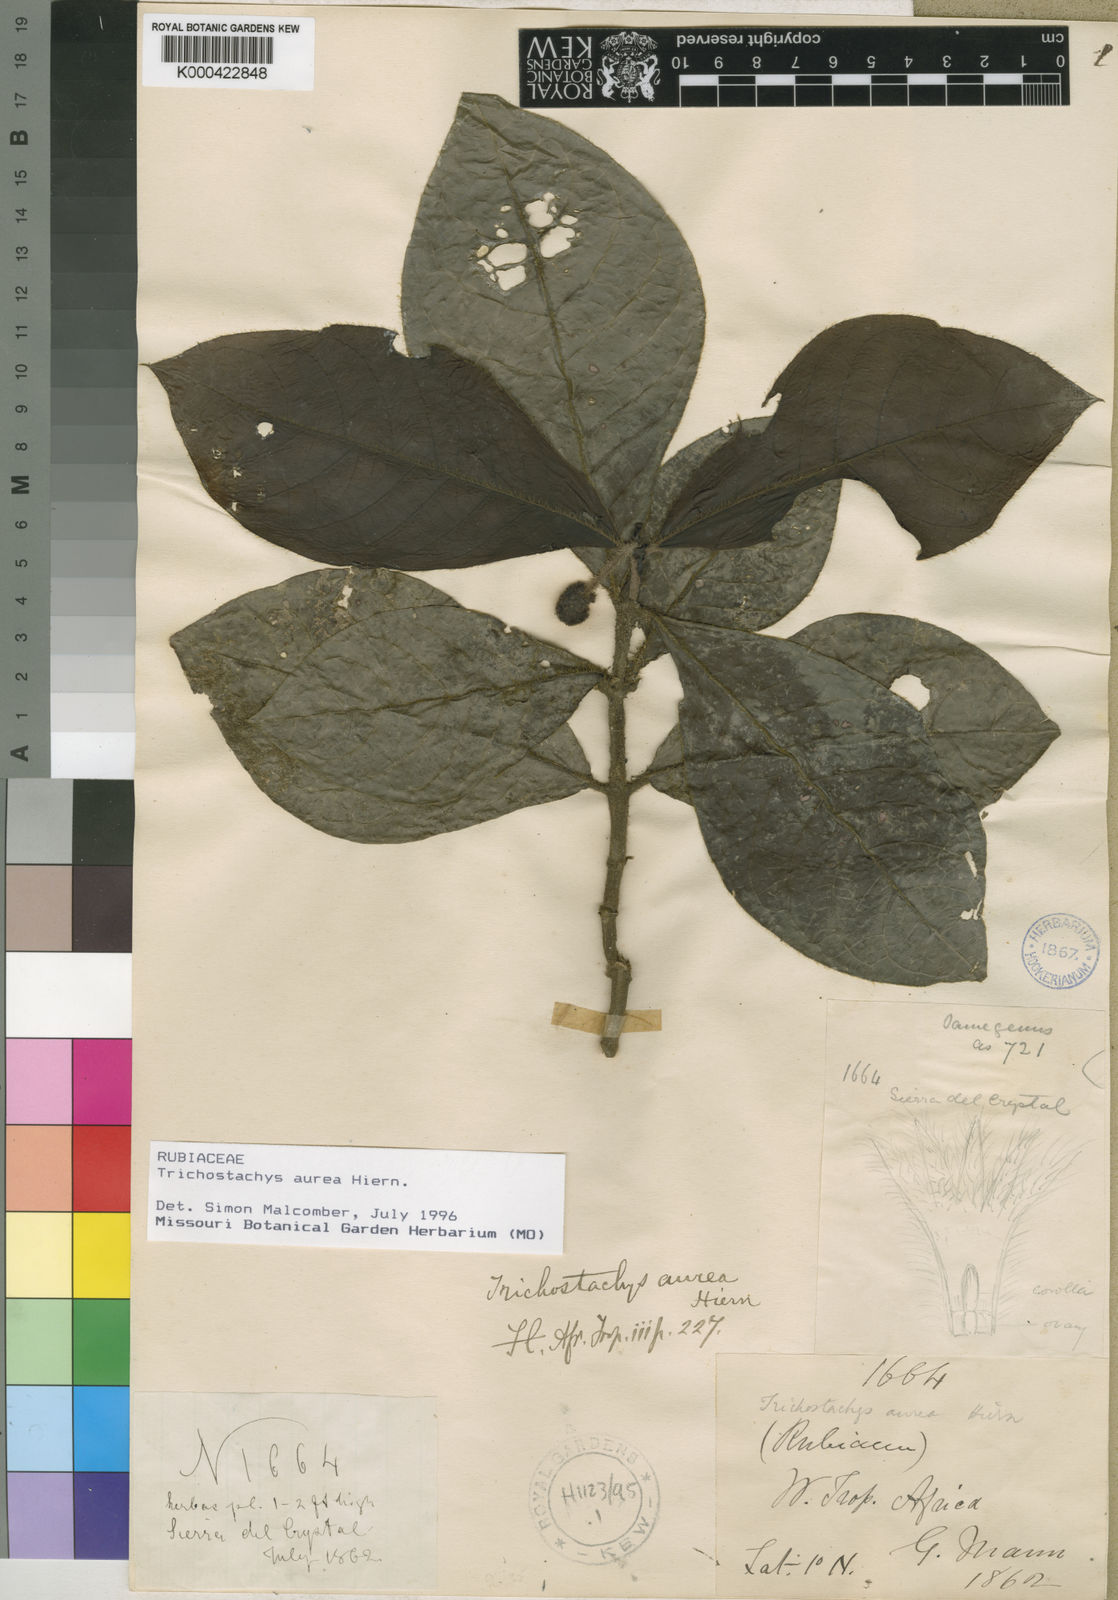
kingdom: Plantae
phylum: Tracheophyta
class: Magnoliopsida
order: Gentianales
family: Rubiaceae
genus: Trichostachys
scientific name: Trichostachys aurea
